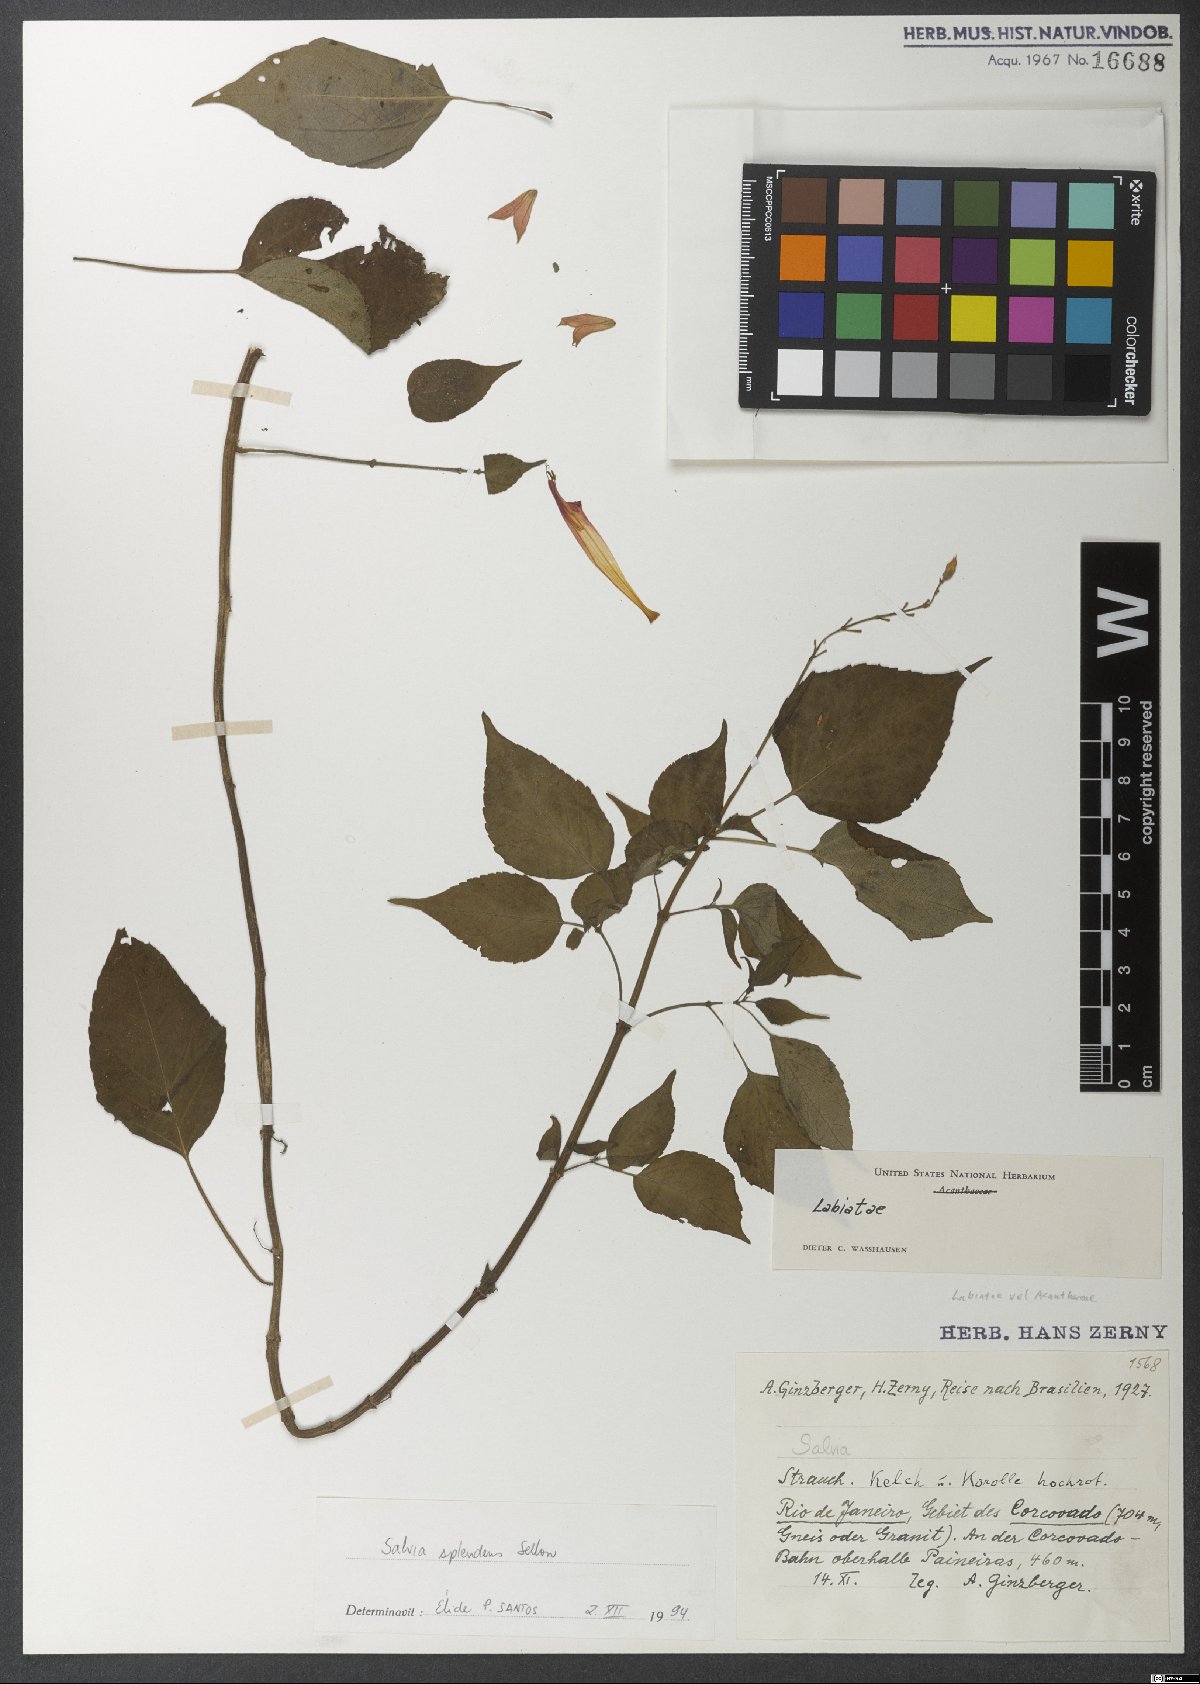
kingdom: Plantae
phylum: Tracheophyta
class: Magnoliopsida
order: Lamiales
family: Lamiaceae
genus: Salvia
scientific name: Salvia splendens
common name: Scarlet sage
